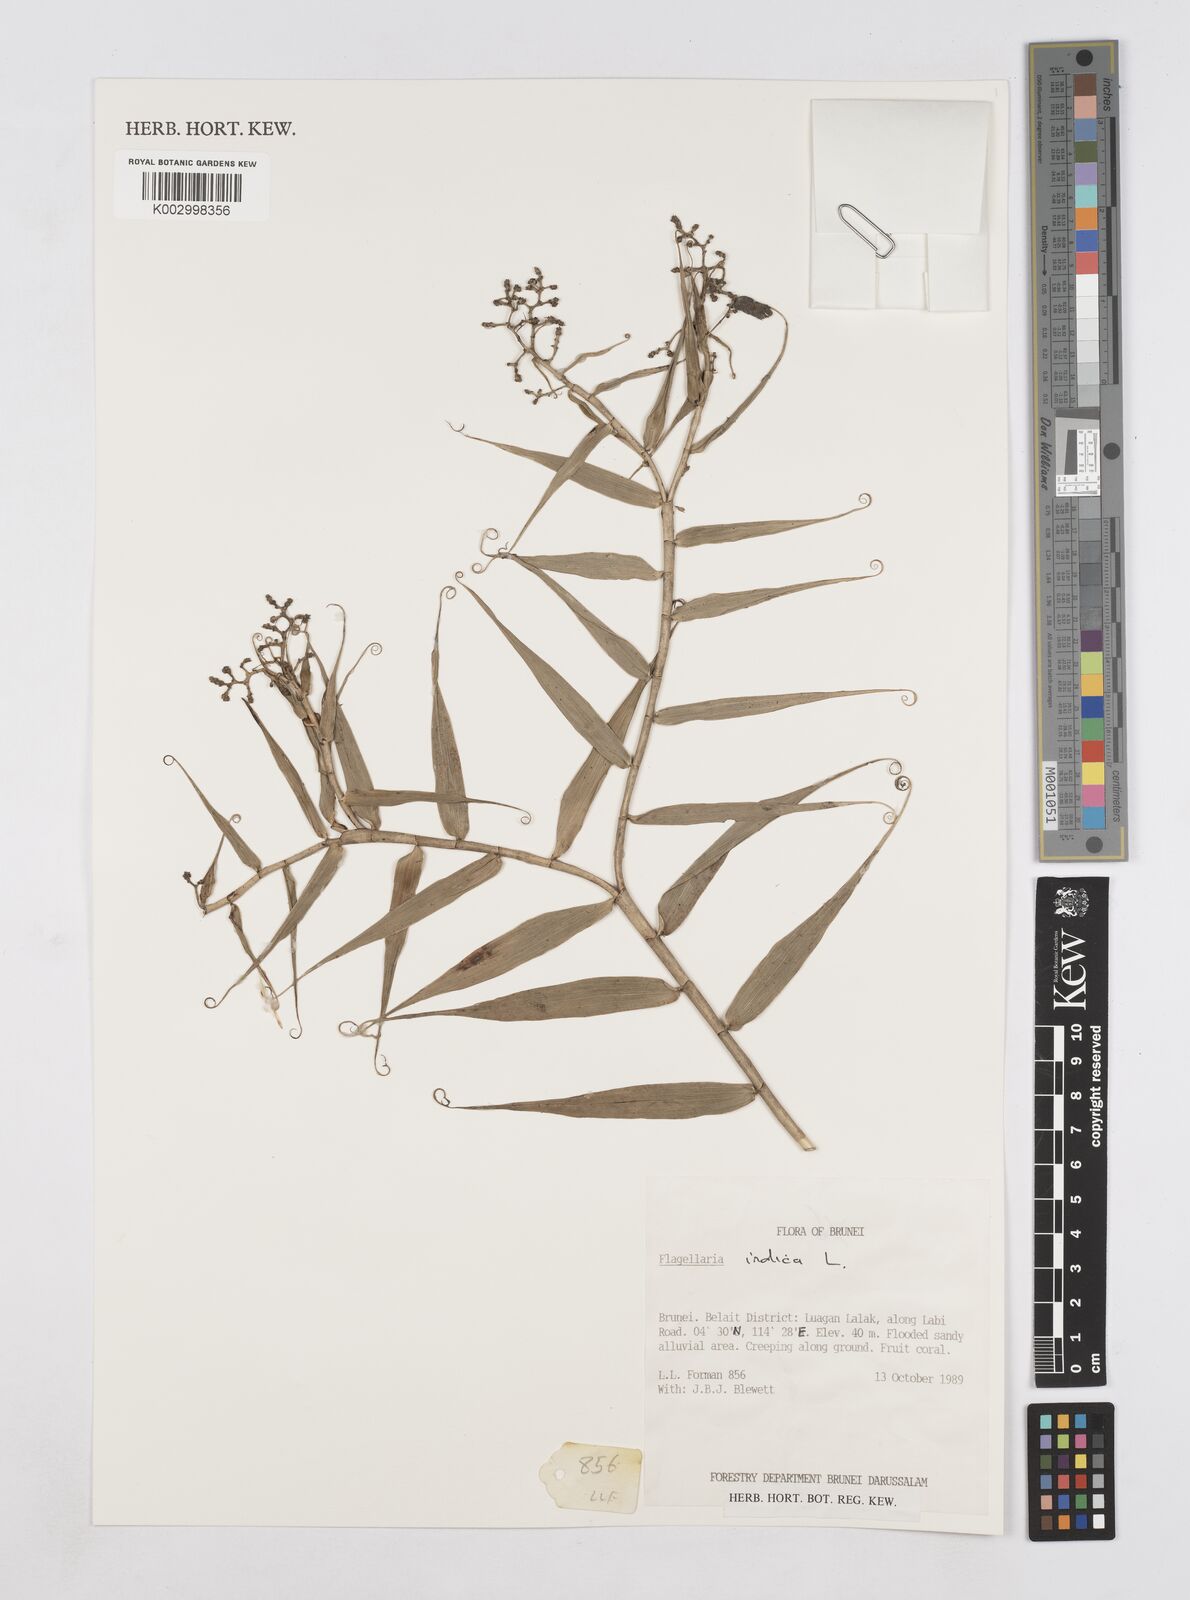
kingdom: Plantae
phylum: Tracheophyta
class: Liliopsida
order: Poales
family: Flagellariaceae
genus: Flagellaria
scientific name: Flagellaria indica
